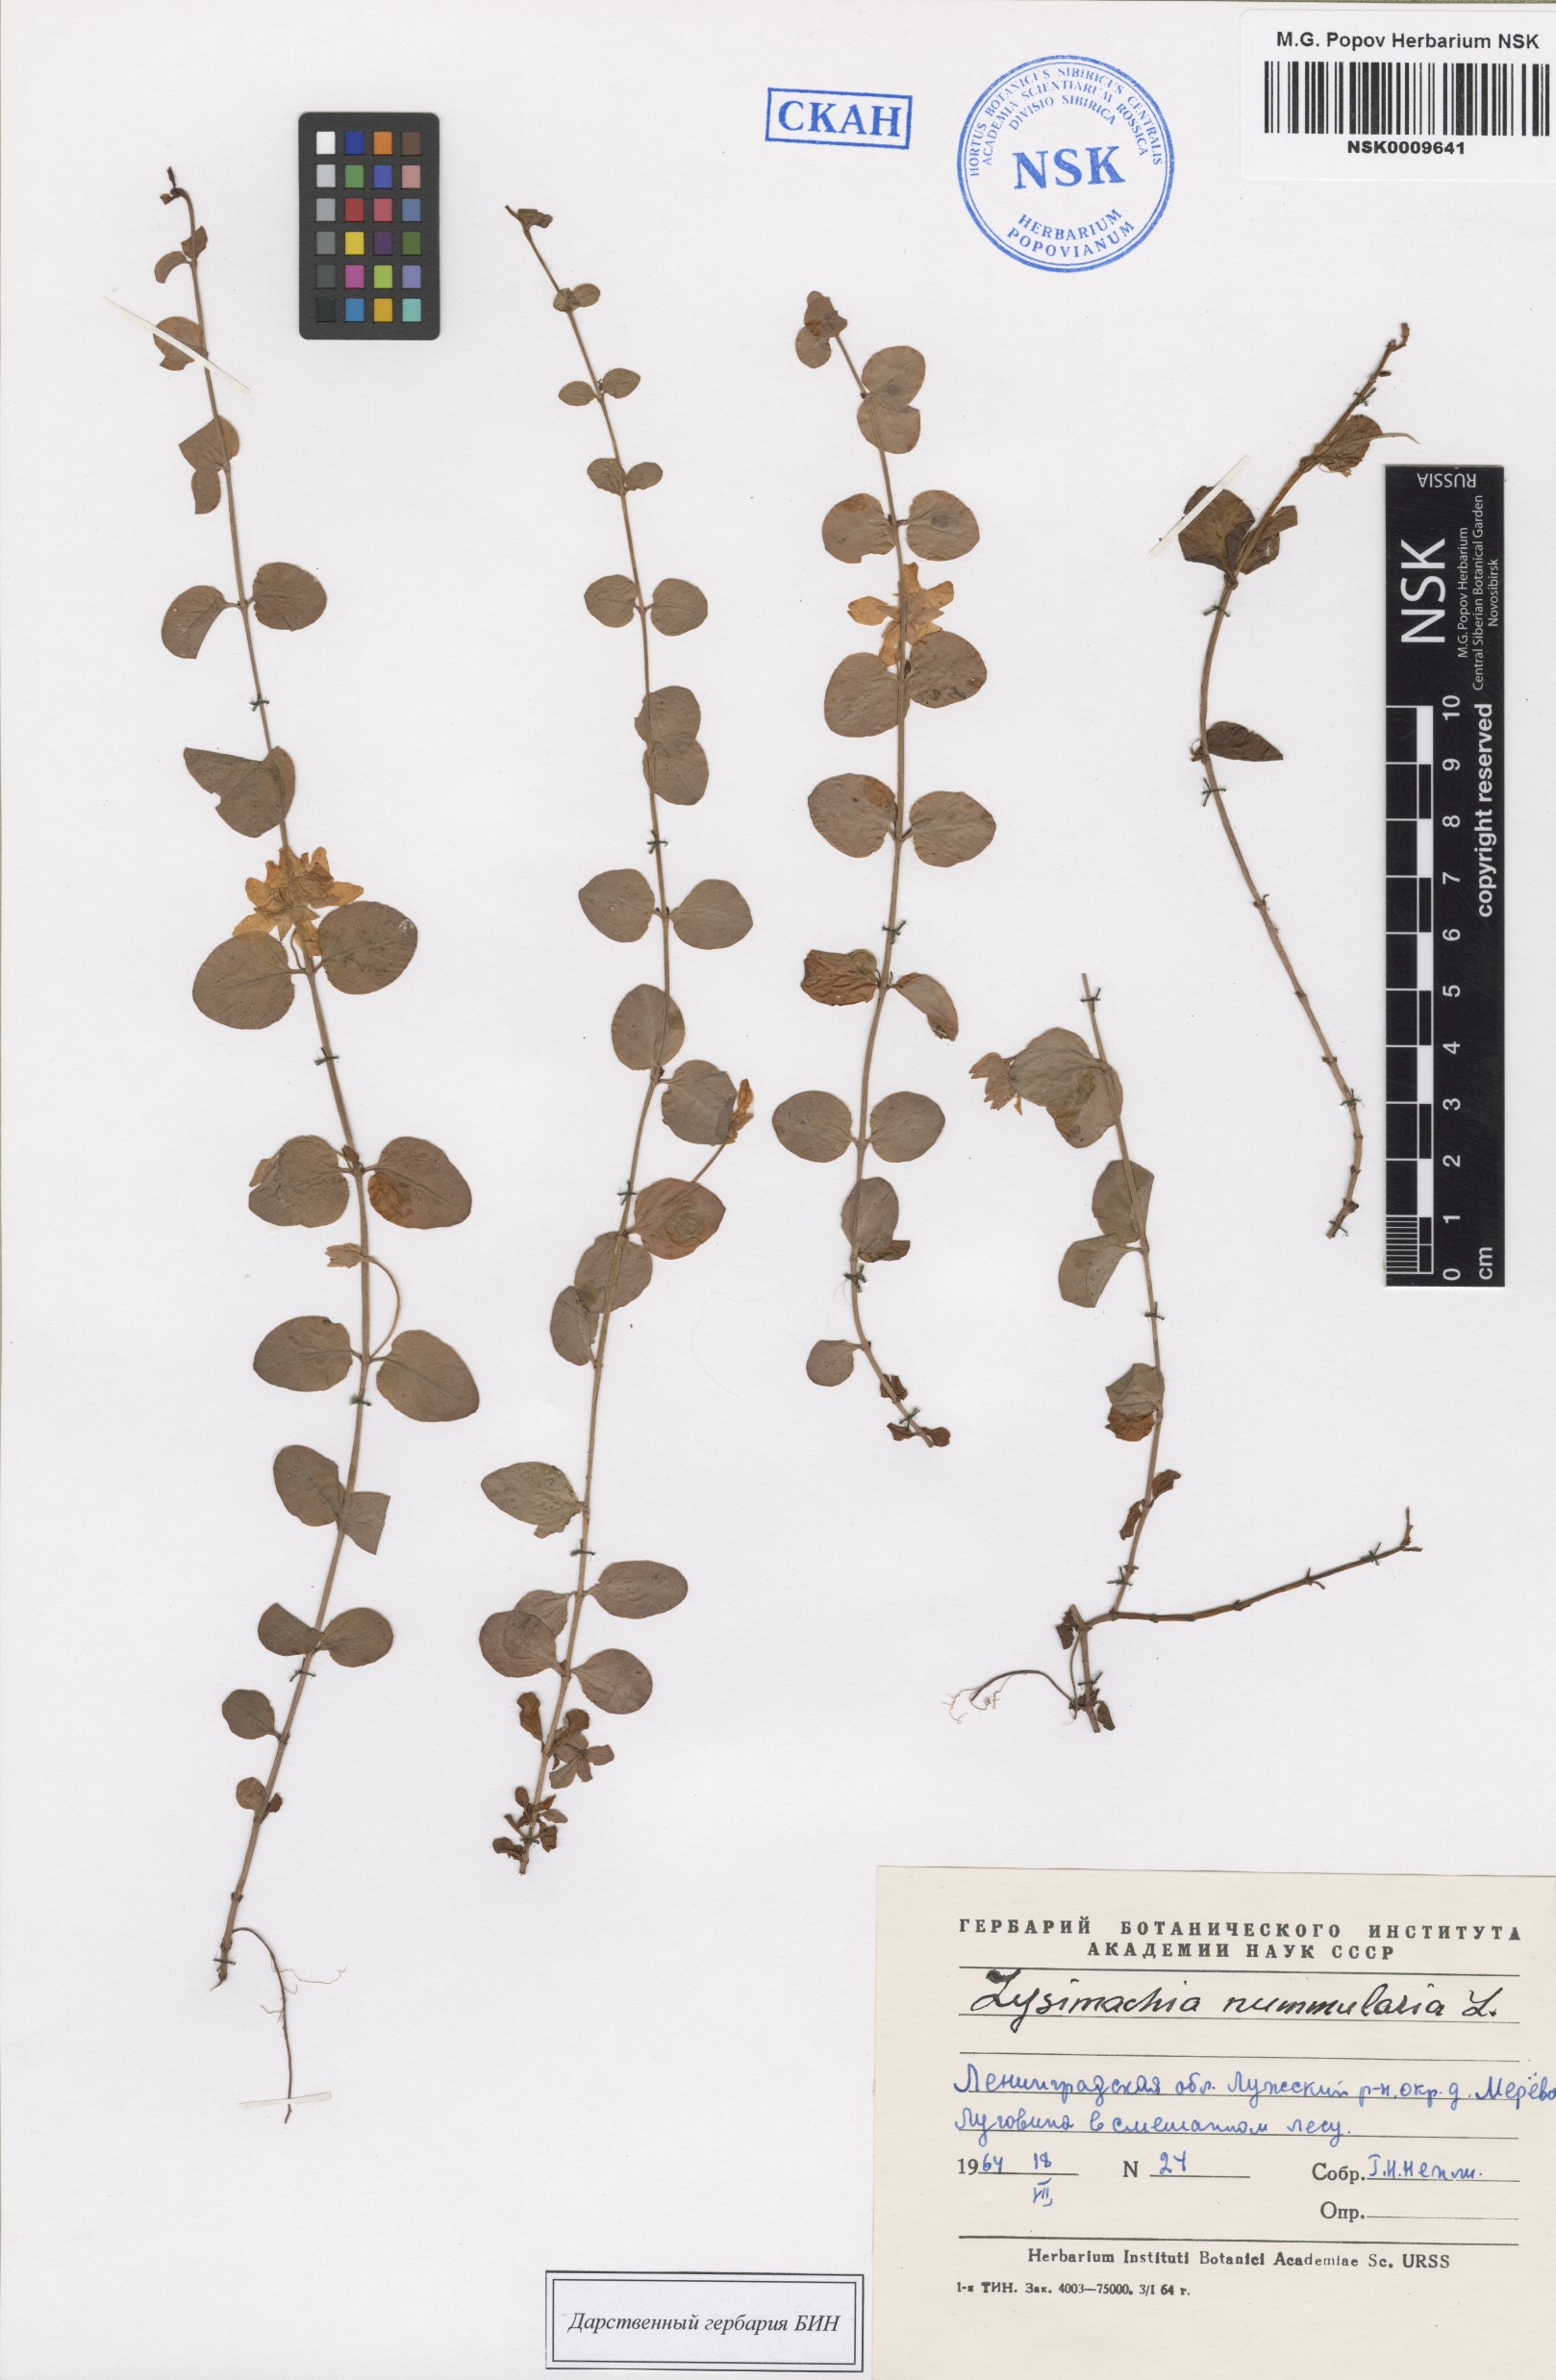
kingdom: Plantae
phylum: Tracheophyta
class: Magnoliopsida
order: Ericales
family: Primulaceae
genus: Lysimachia
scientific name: Lysimachia nummularia
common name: Moneywort
